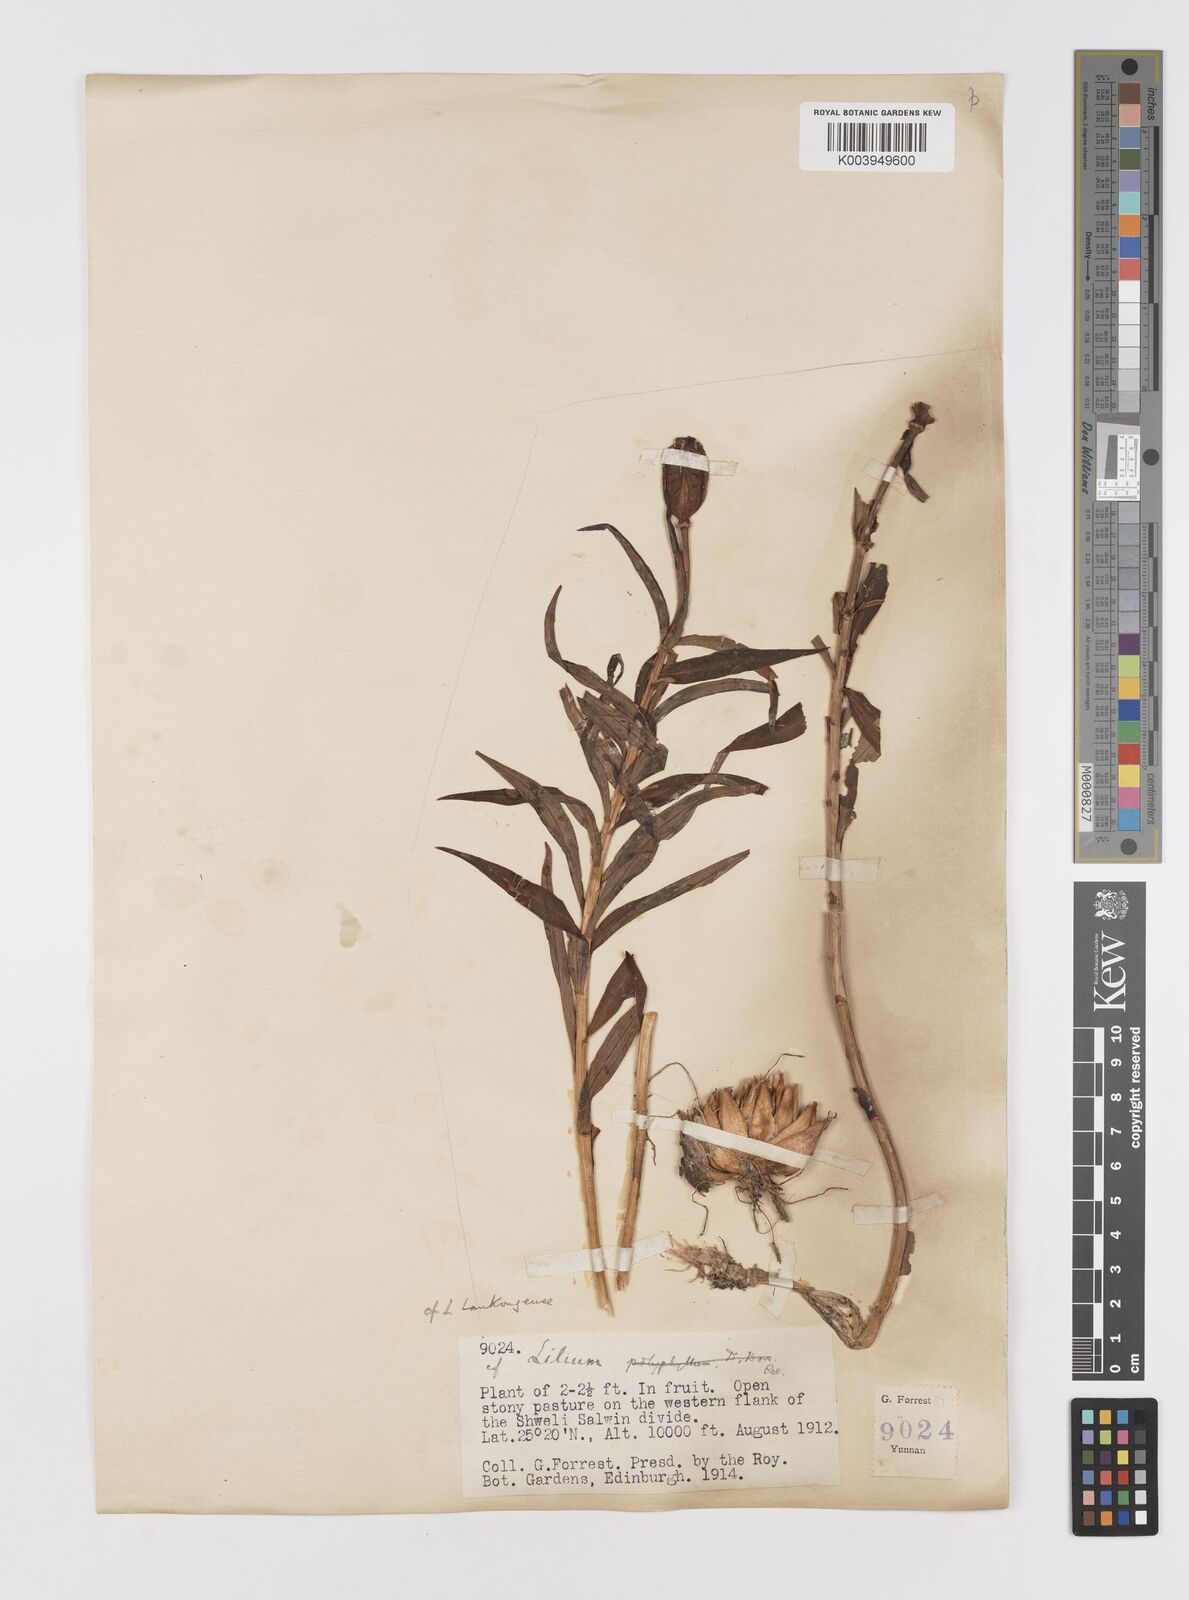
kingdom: Plantae
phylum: Tracheophyta
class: Liliopsida
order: Liliales
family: Liliaceae
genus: Lilium
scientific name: Lilium henrici
